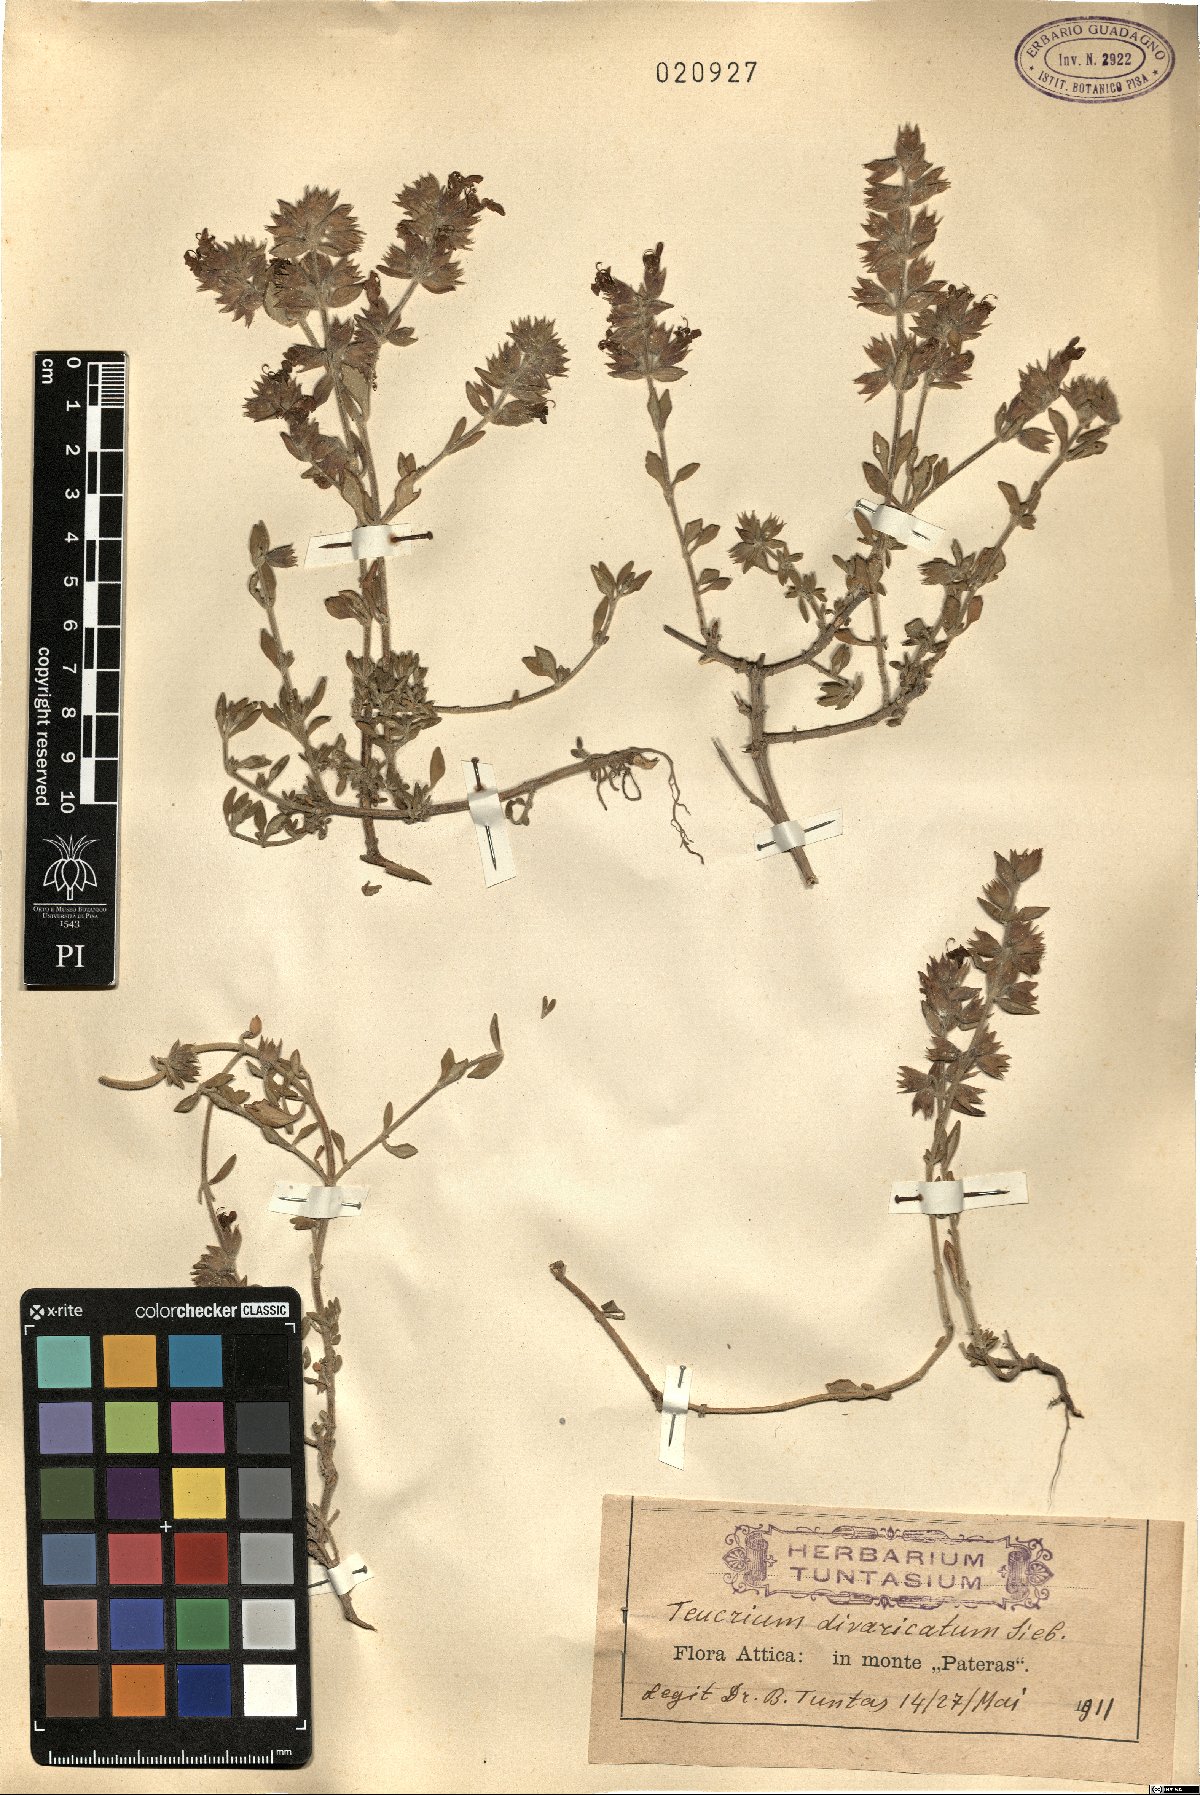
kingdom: Plantae
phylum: Tracheophyta
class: Magnoliopsida
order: Lamiales
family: Lamiaceae
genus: Teucrium
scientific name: Teucrium divaricatum
